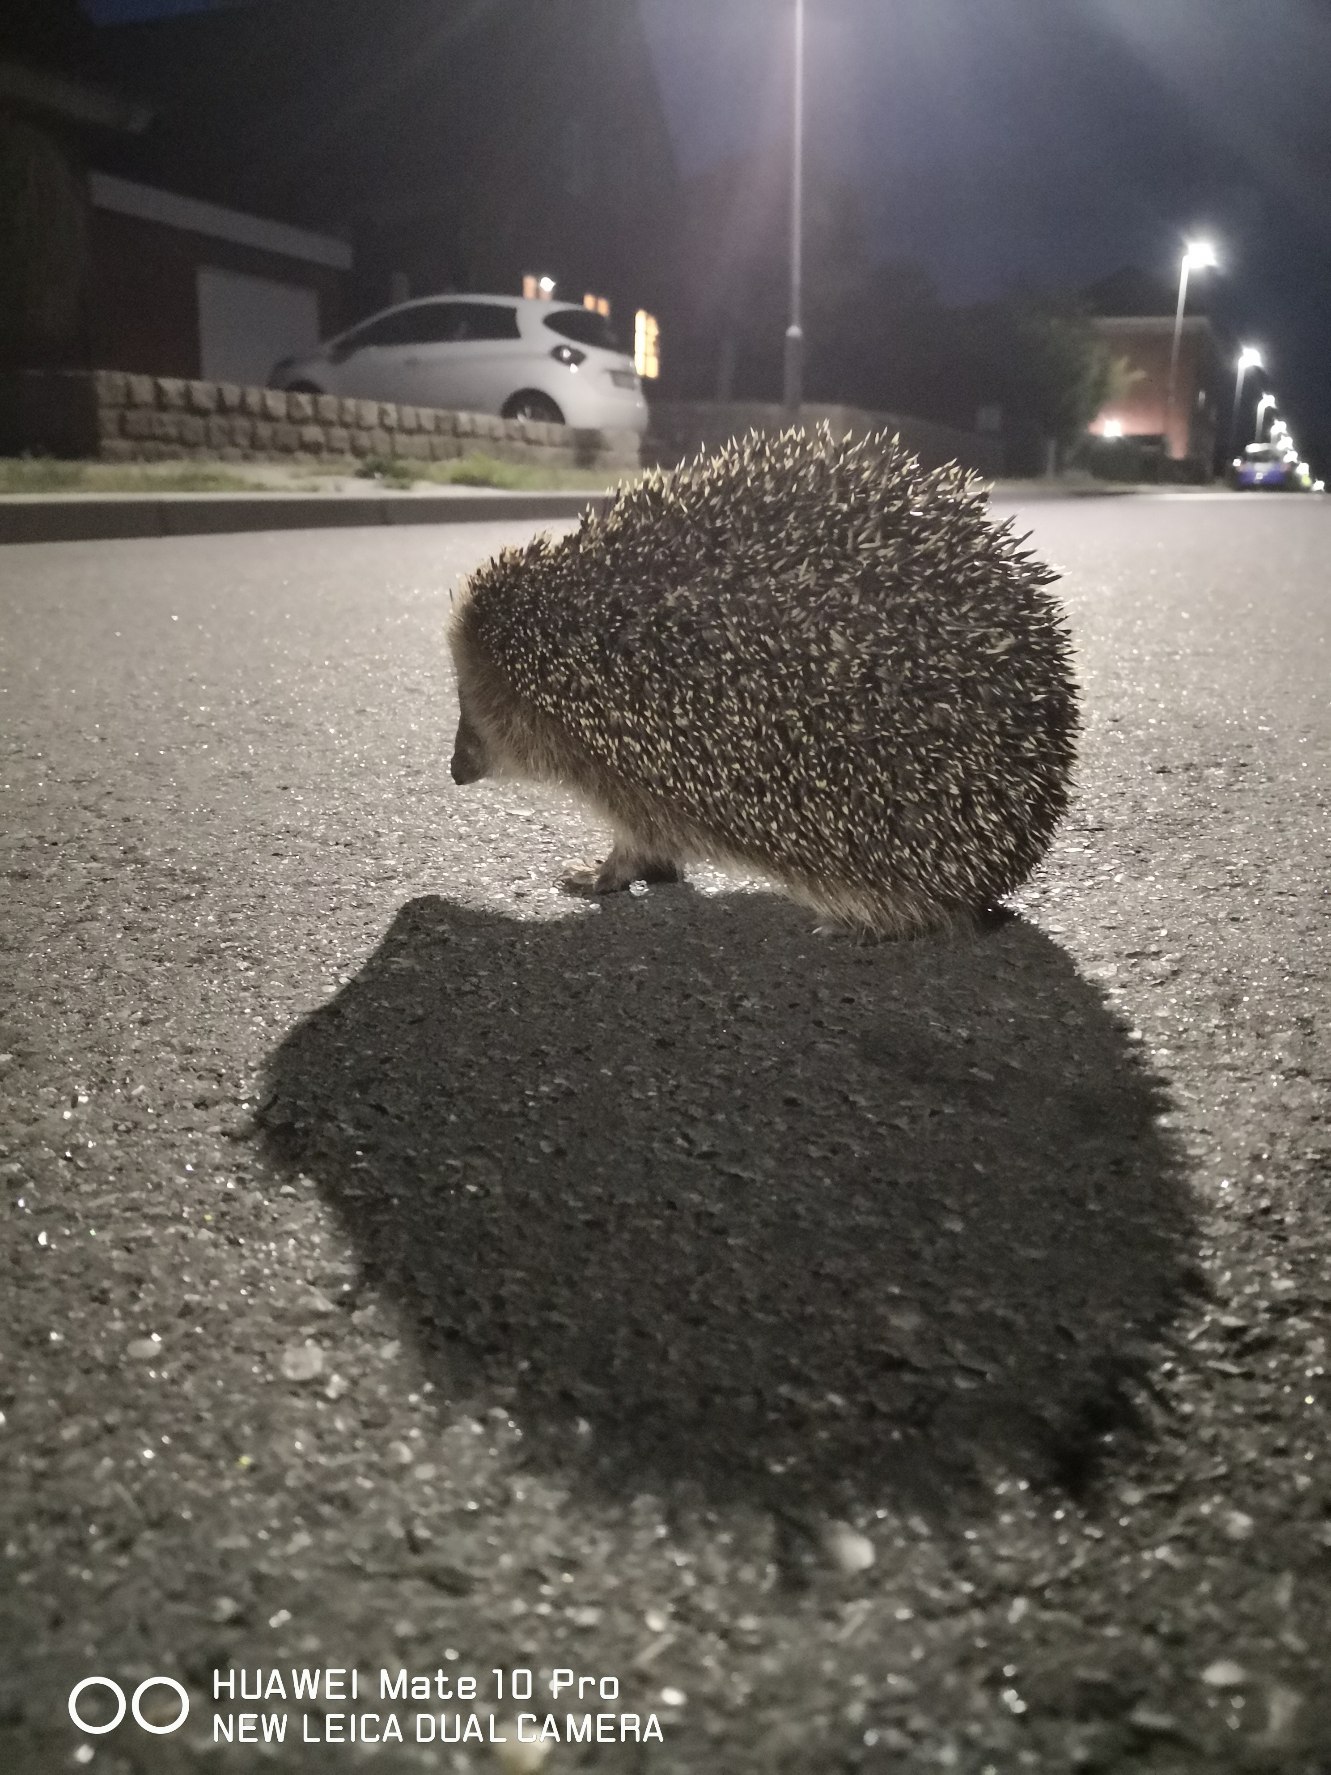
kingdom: Animalia
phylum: Chordata
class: Mammalia
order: Erinaceomorpha
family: Erinaceidae
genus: Erinaceus
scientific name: Erinaceus europaeus
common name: Pindsvin
